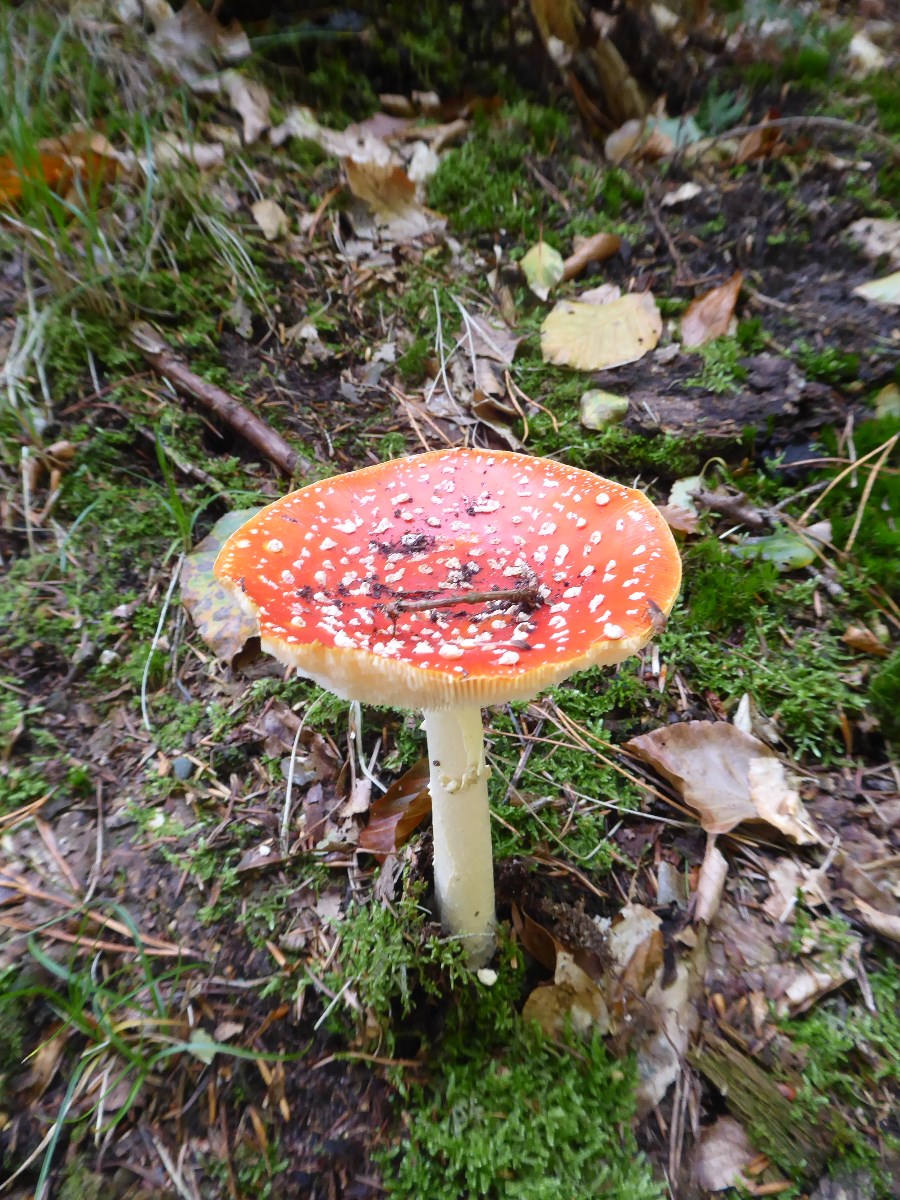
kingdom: Fungi
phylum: Basidiomycota
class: Agaricomycetes
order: Agaricales
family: Amanitaceae
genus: Amanita
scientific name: Amanita muscaria
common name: rød fluesvamp
